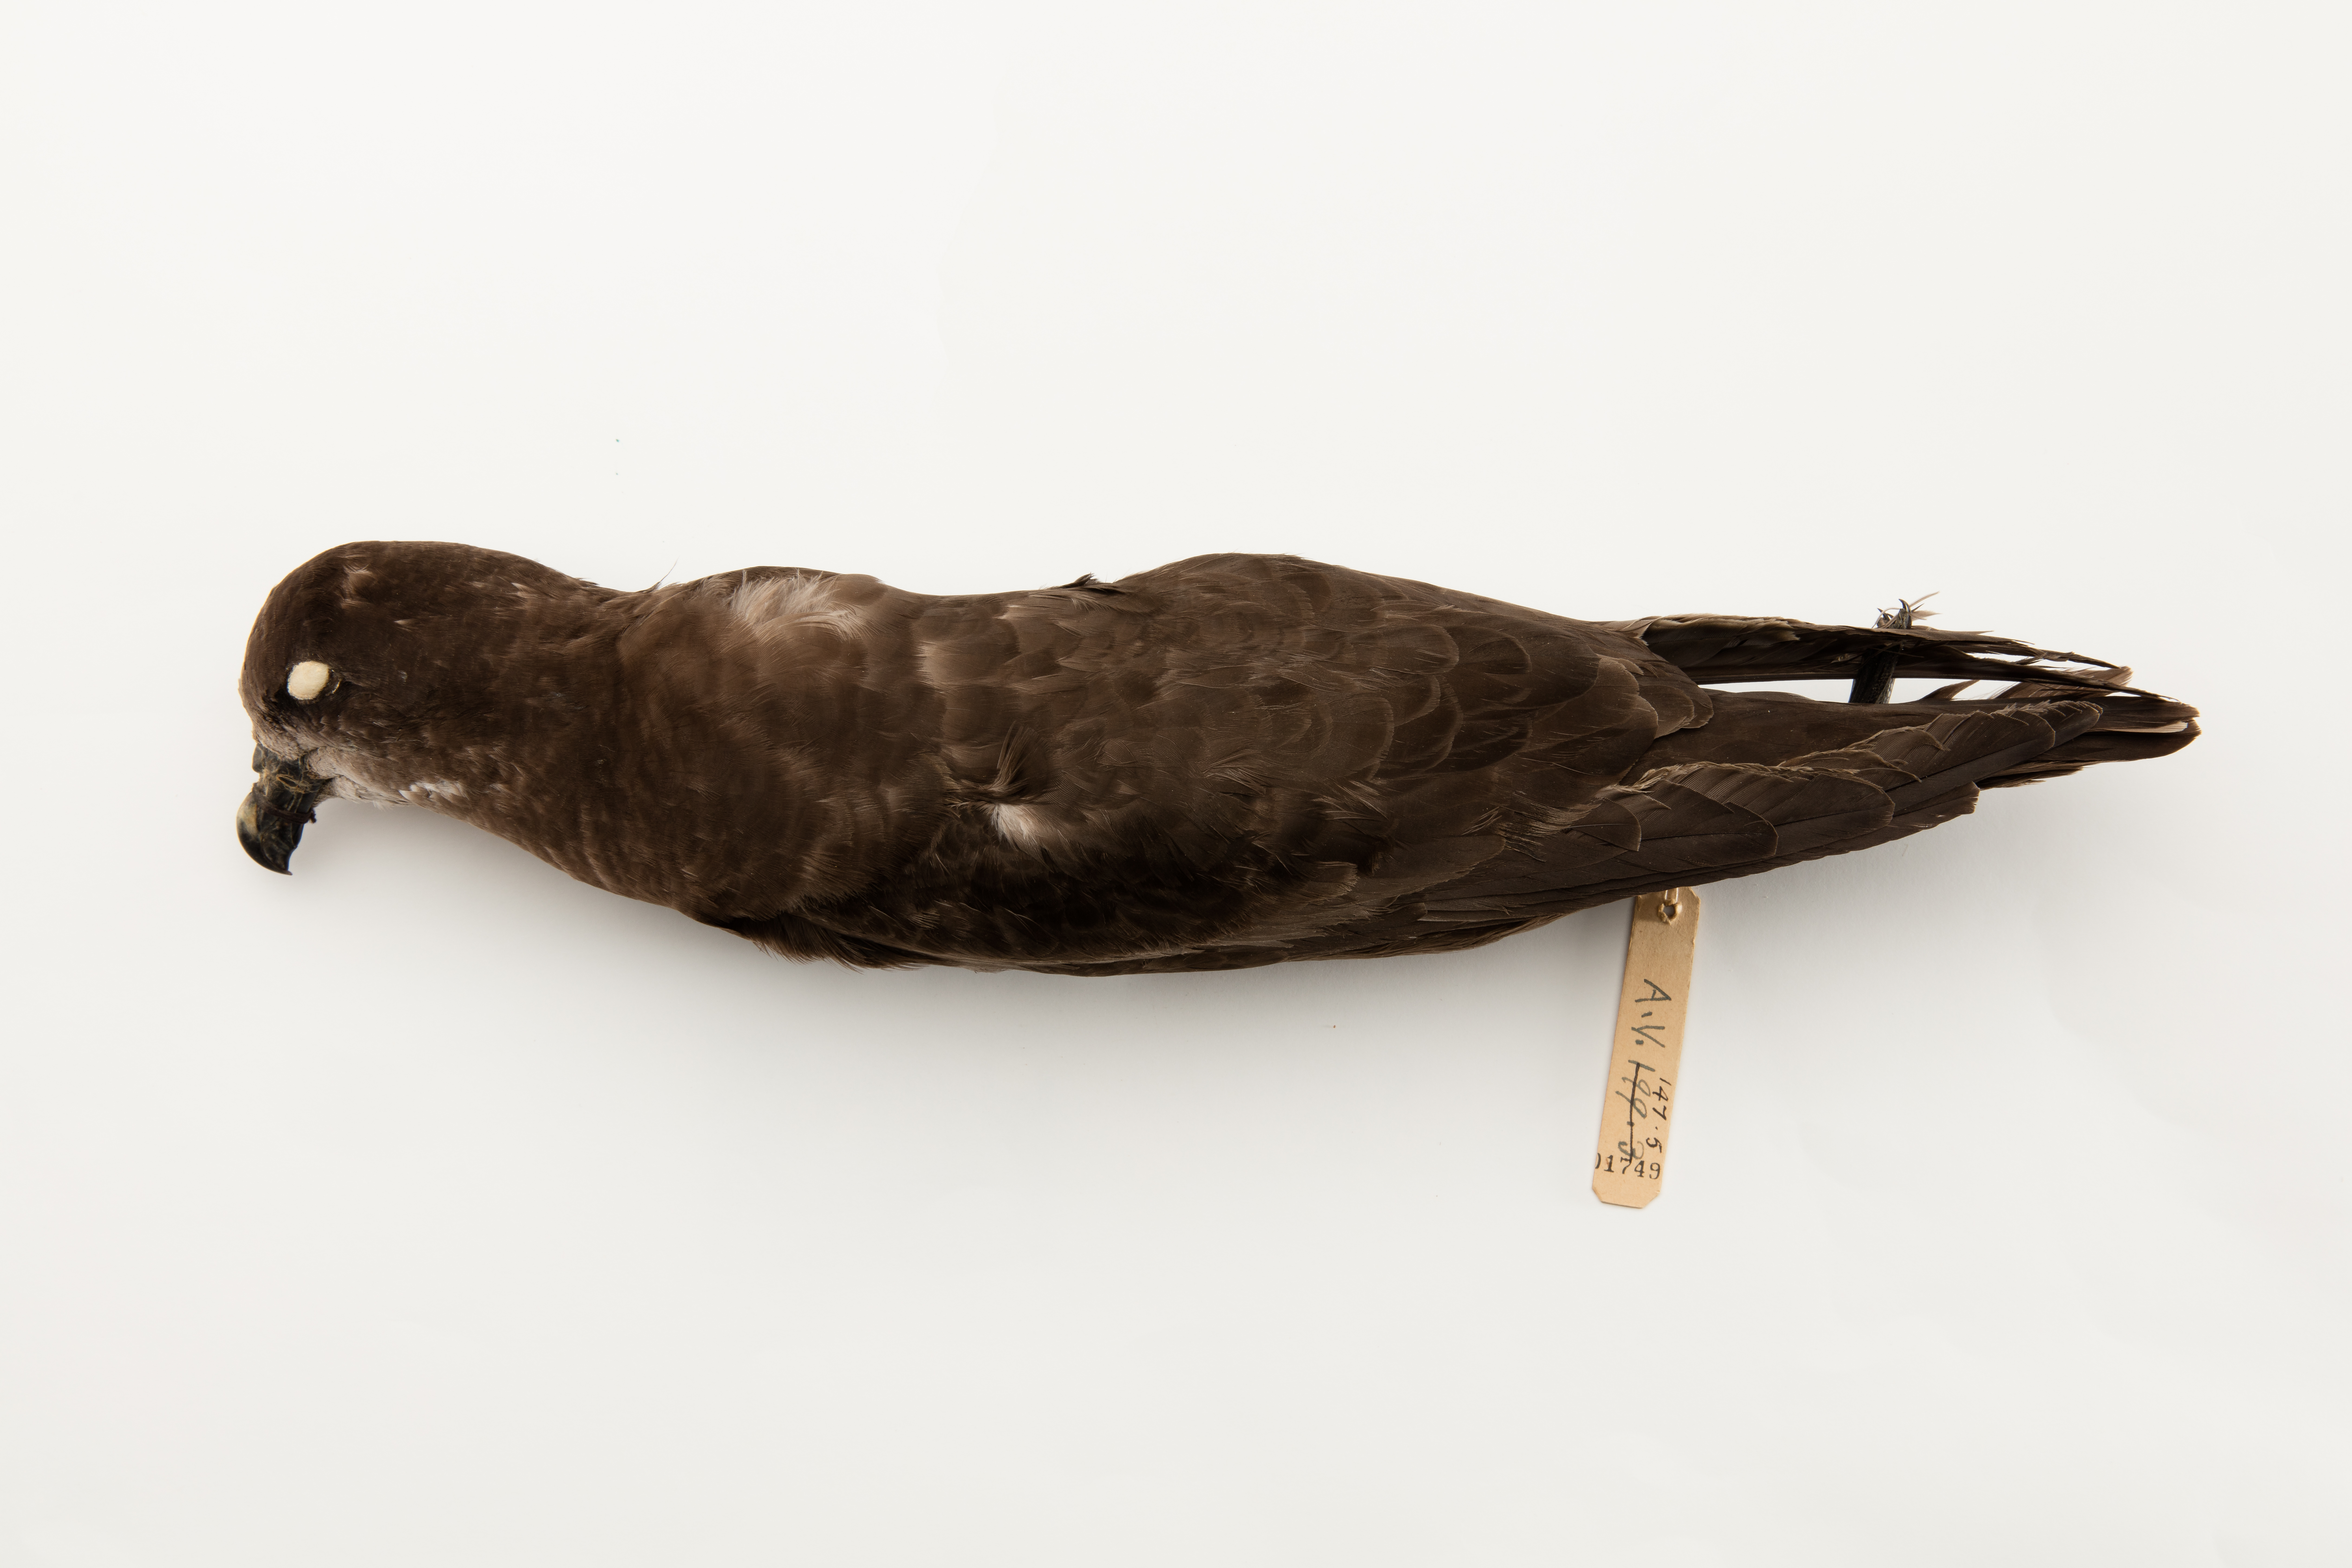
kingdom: Animalia
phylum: Chordata
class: Aves
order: Procellariiformes
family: Procellariidae
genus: Pterodroma
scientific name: Pterodroma macroptera
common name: Great-winged petrel
